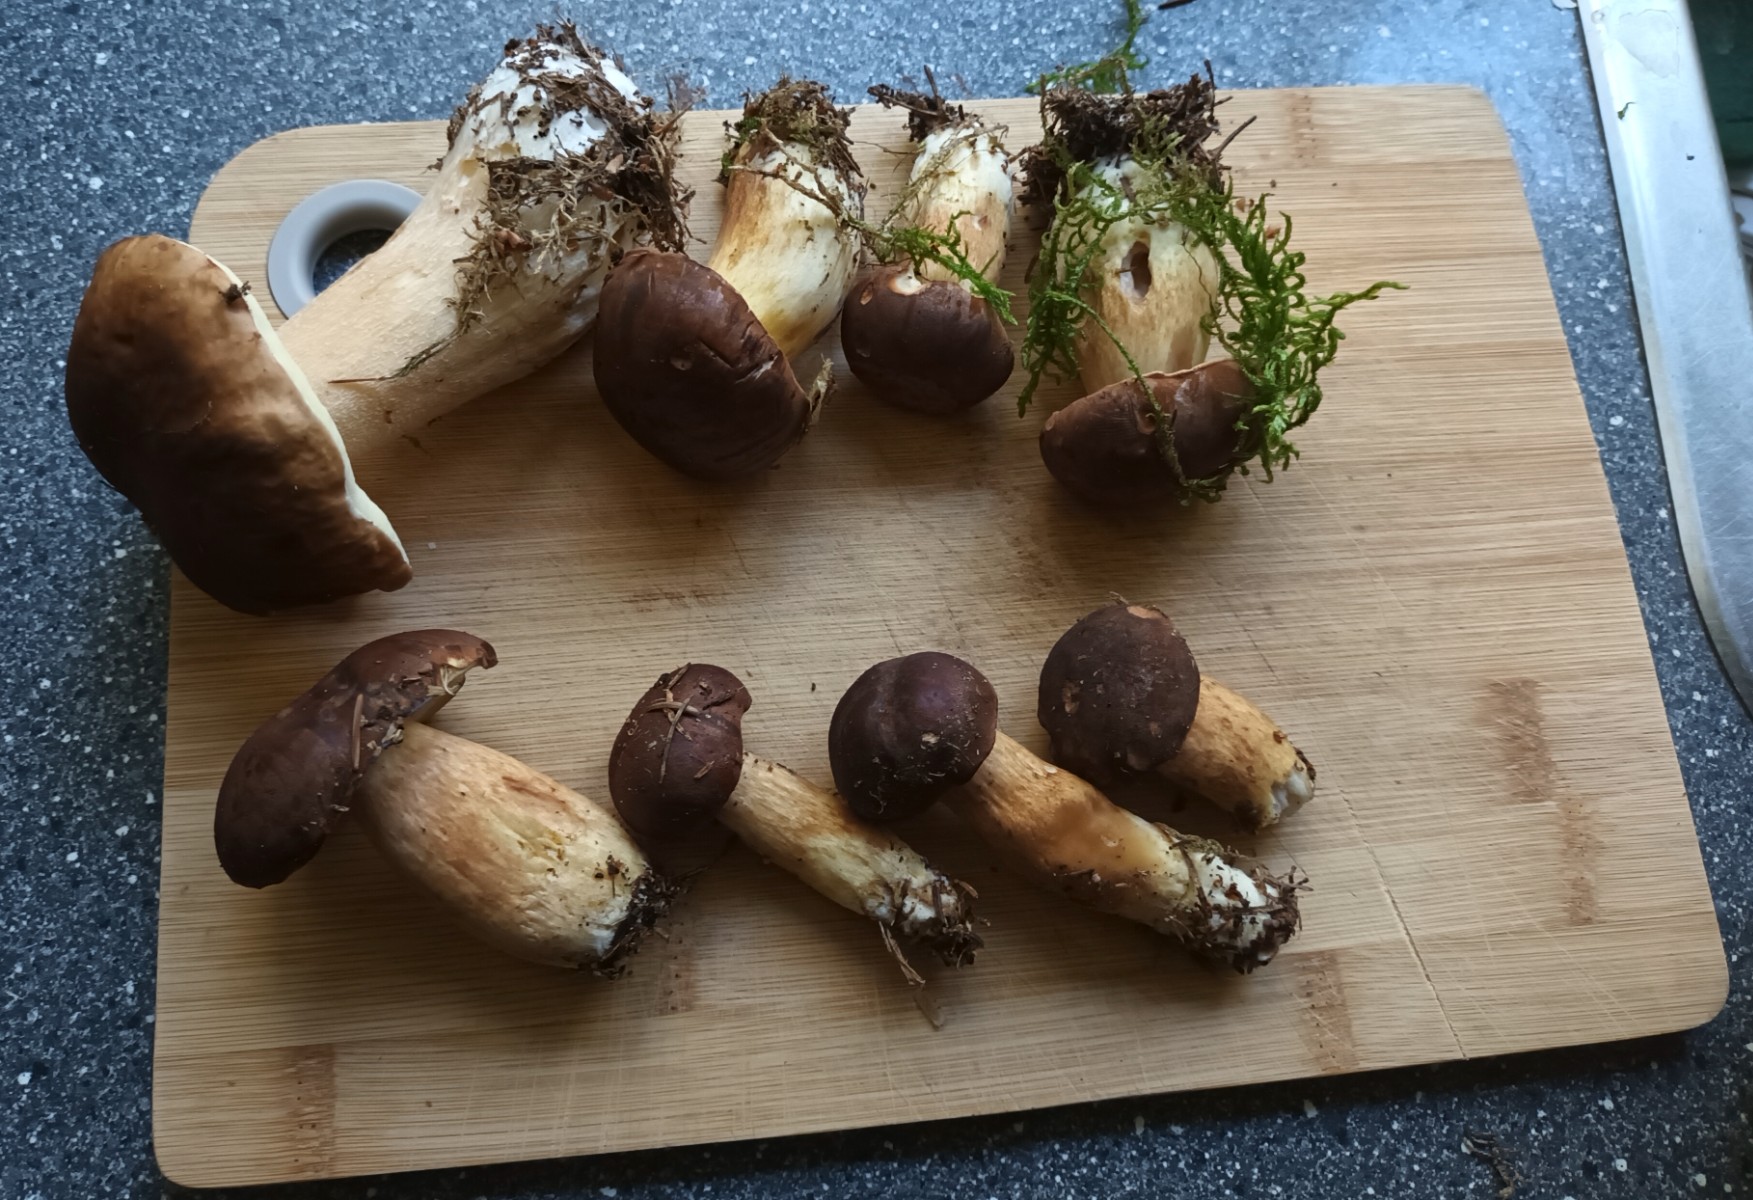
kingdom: Fungi
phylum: Basidiomycota
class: Agaricomycetes
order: Boletales
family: Boletaceae
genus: Imleria
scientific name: Imleria badia
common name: brunstokket rørhat
